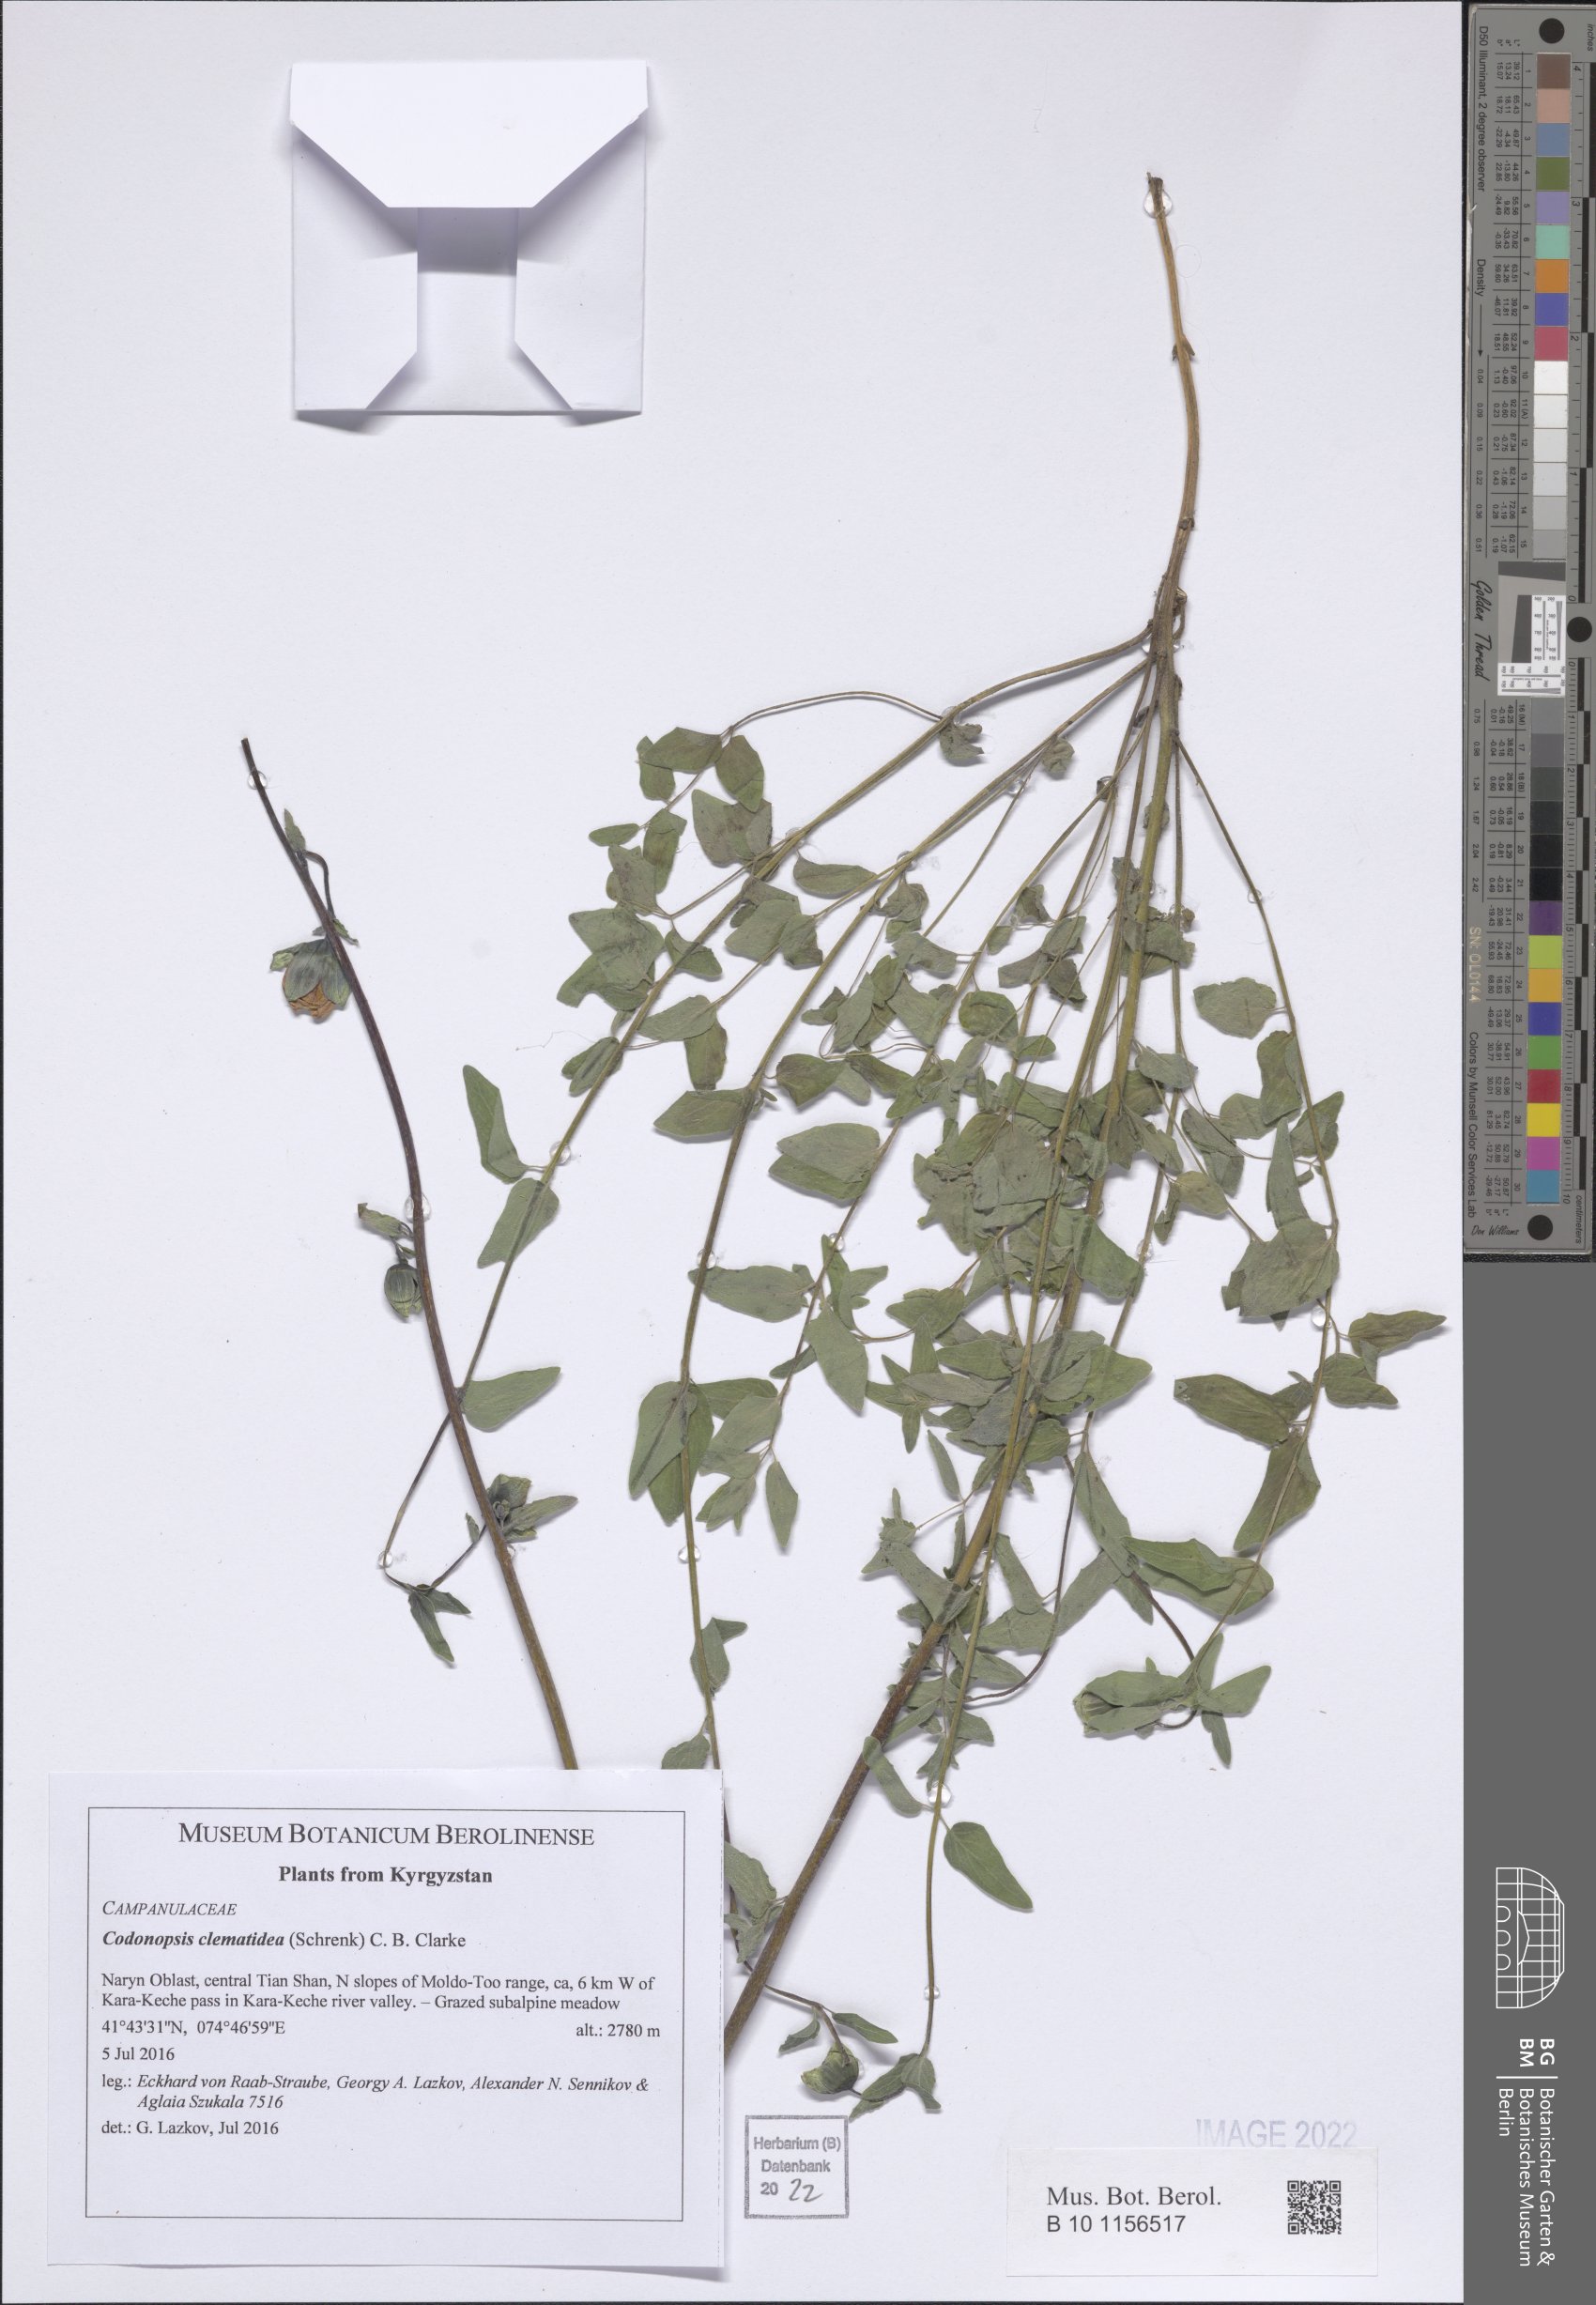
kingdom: Plantae
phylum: Tracheophyta
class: Magnoliopsida
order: Asterales
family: Campanulaceae
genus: Codonopsis
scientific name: Codonopsis clematidea
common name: Bonnet-bellflower
